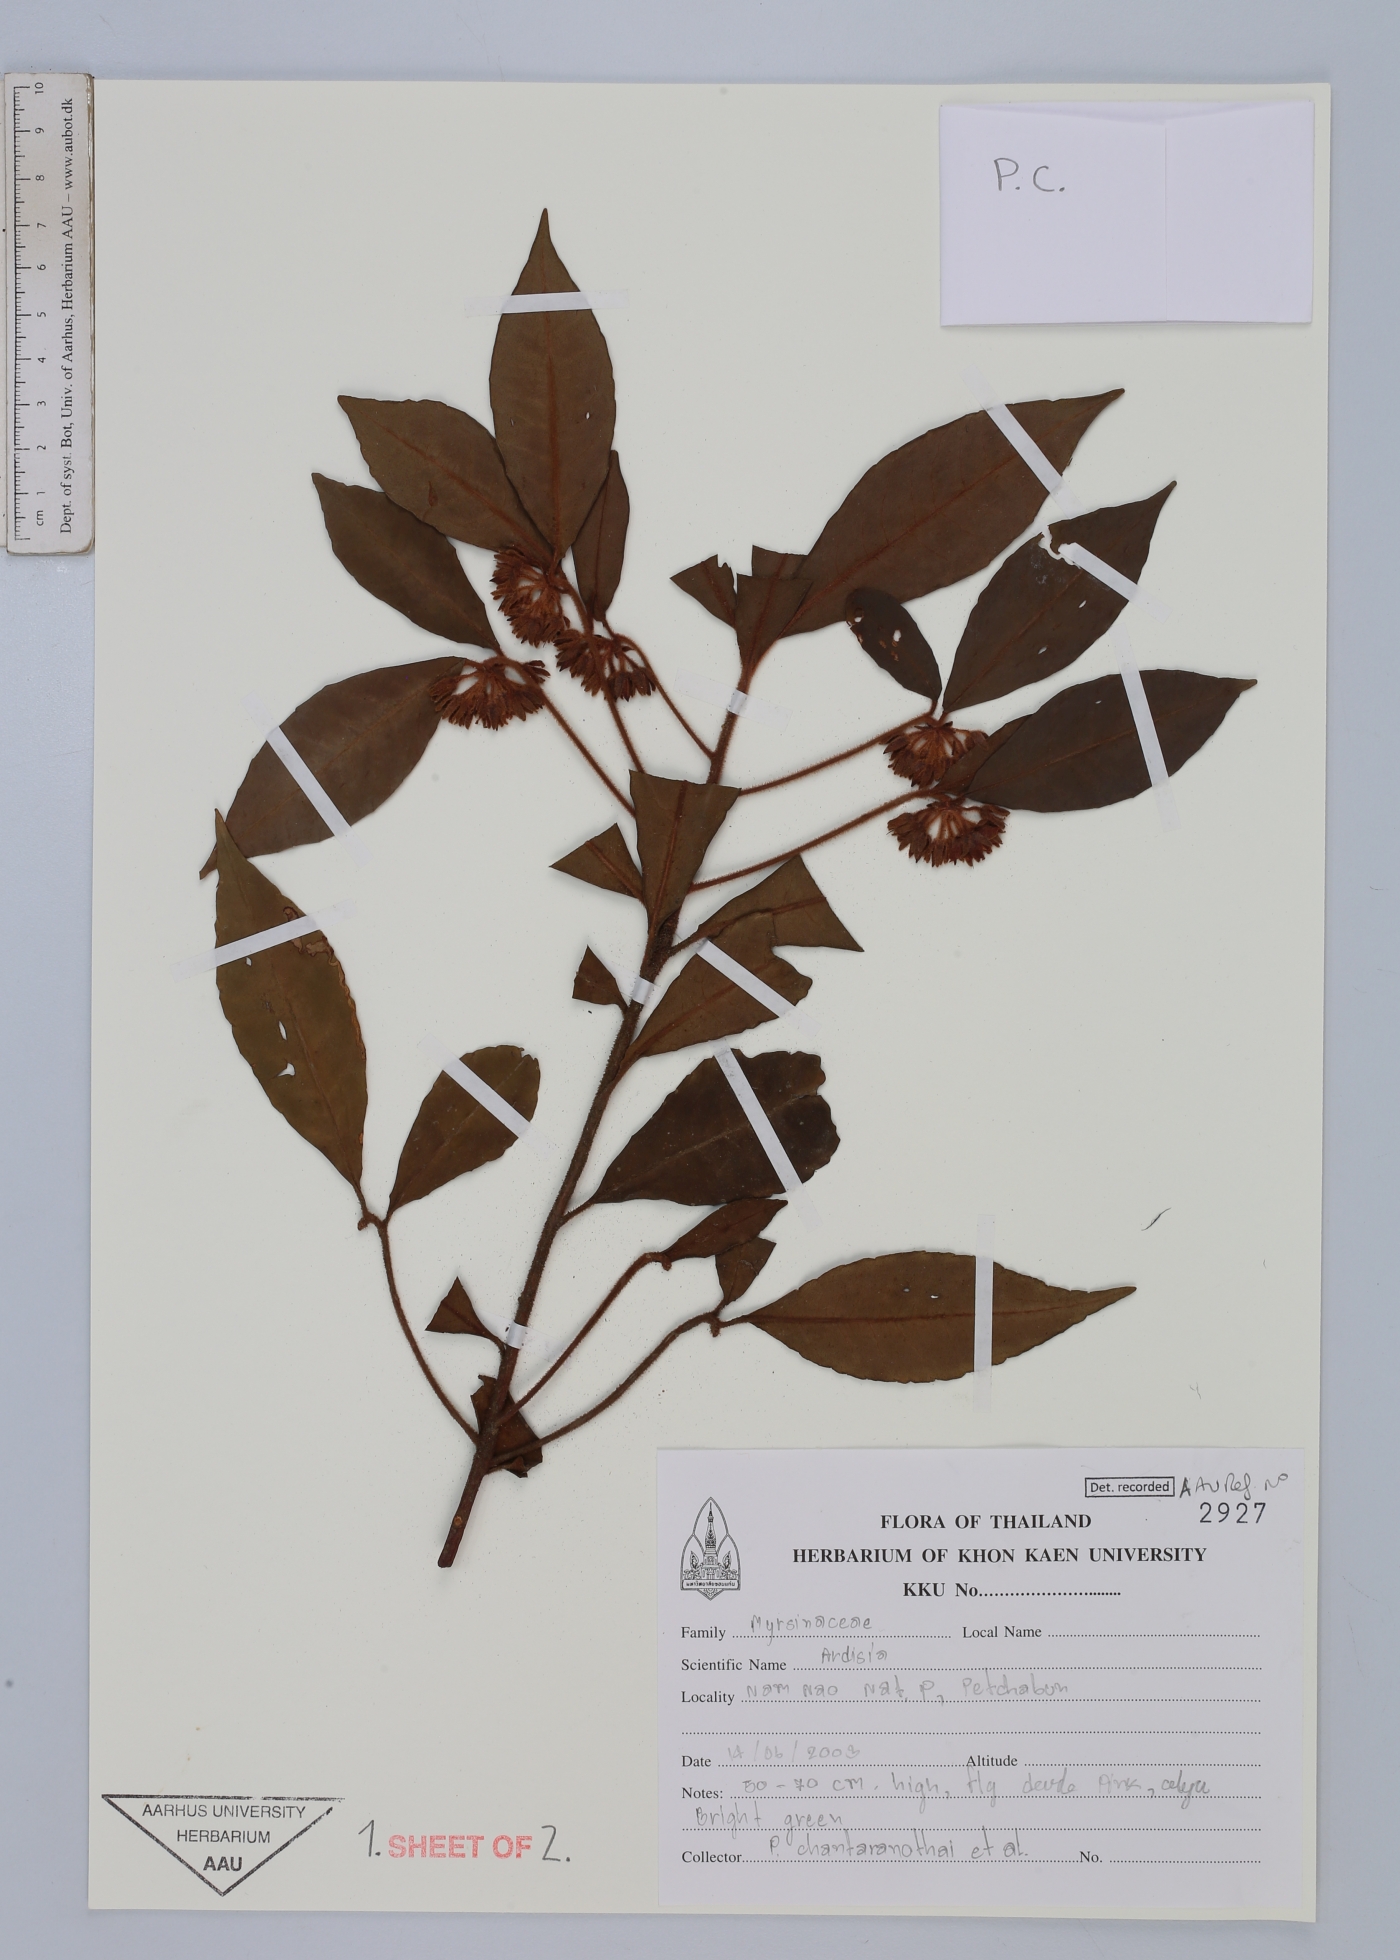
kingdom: Plantae
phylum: Tracheophyta
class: Magnoliopsida
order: Ericales
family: Primulaceae
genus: Ardisia
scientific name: Ardisia
